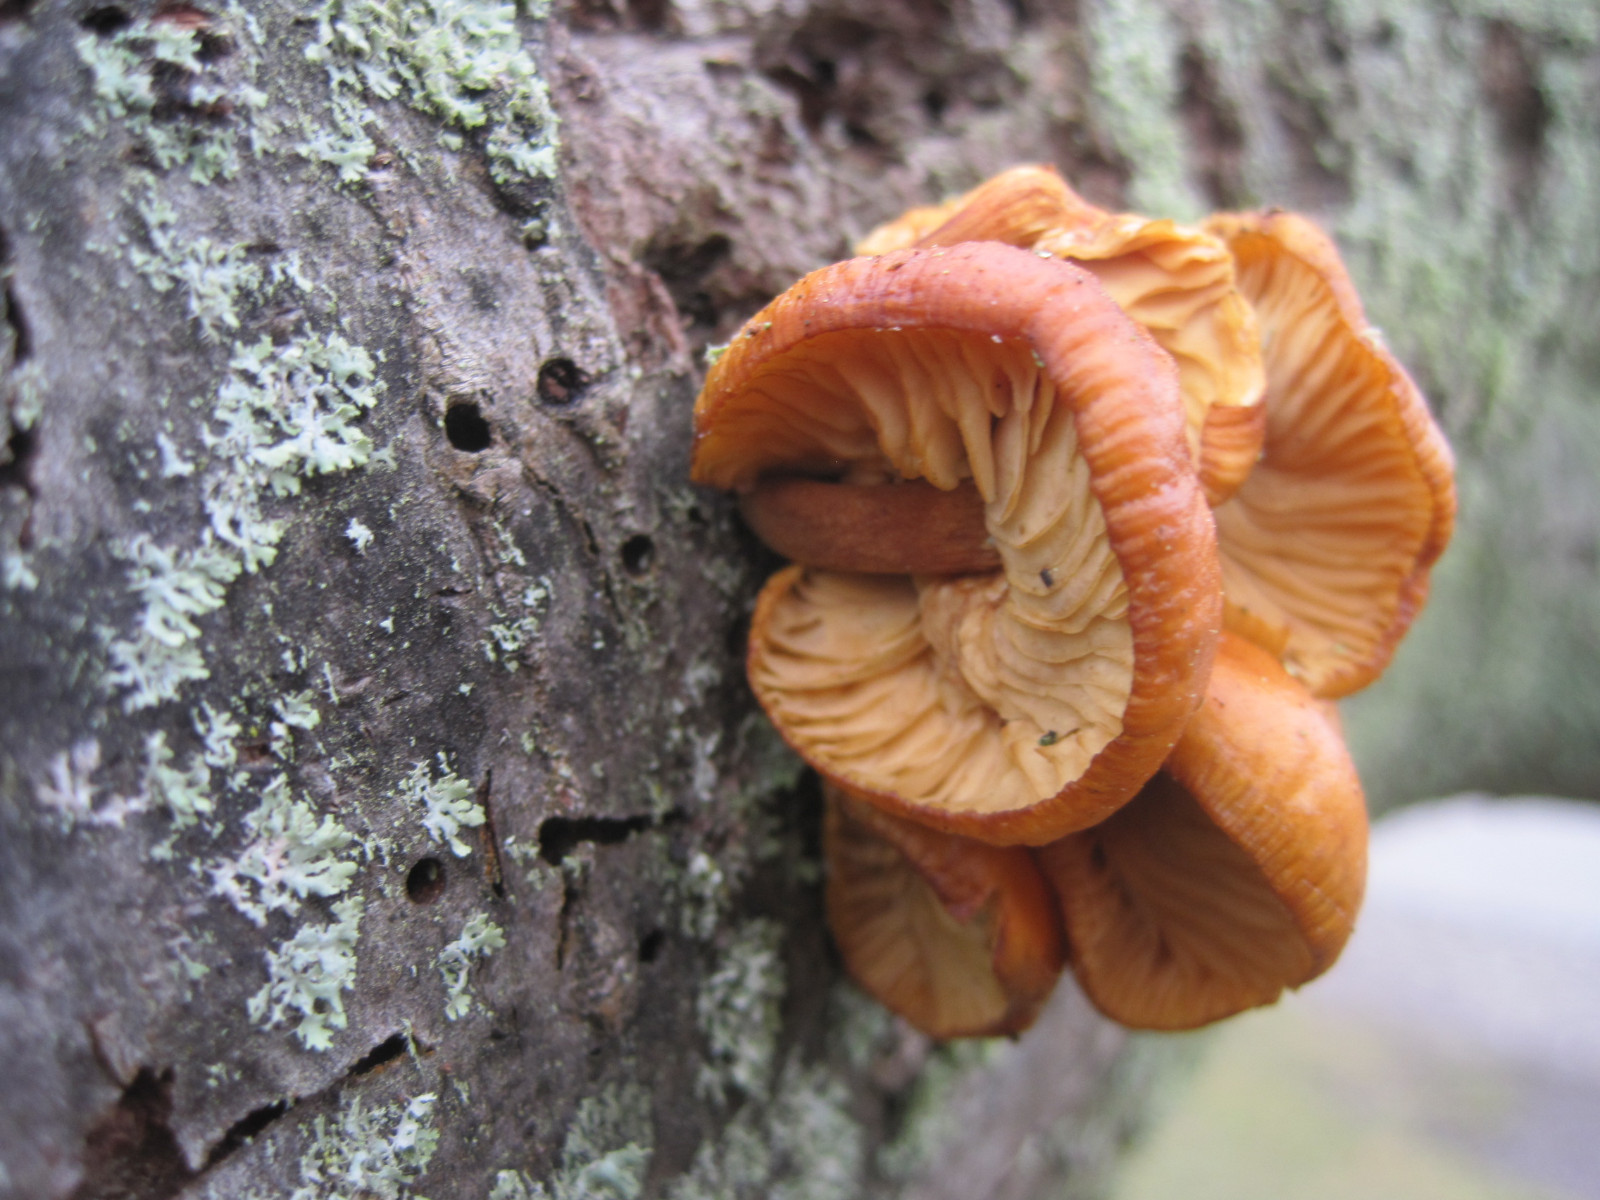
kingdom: Fungi
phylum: Basidiomycota
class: Agaricomycetes
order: Agaricales
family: Physalacriaceae
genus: Flammulina
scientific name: Flammulina velutipes
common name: gul fløjlsfod
